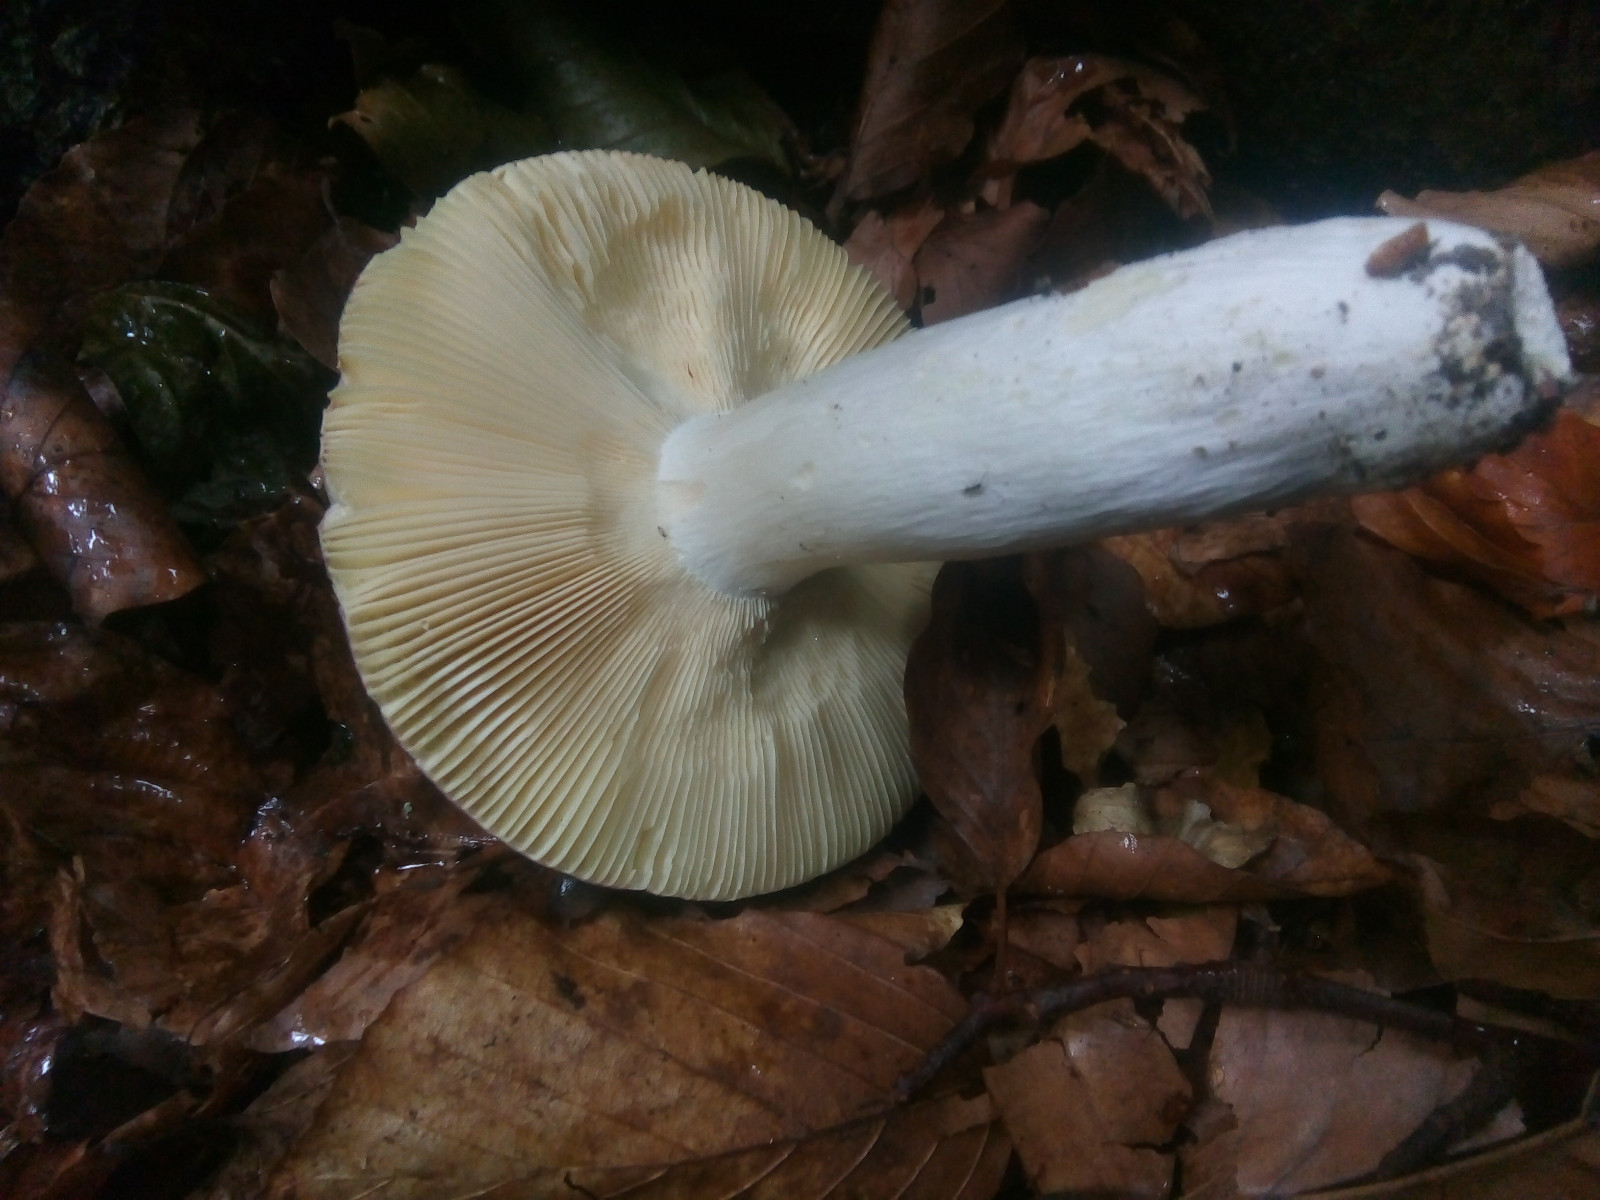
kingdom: Fungi
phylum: Basidiomycota
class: Agaricomycetes
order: Russulales
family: Russulaceae
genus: Russula
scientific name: Russula romellii
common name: romells skørhat
